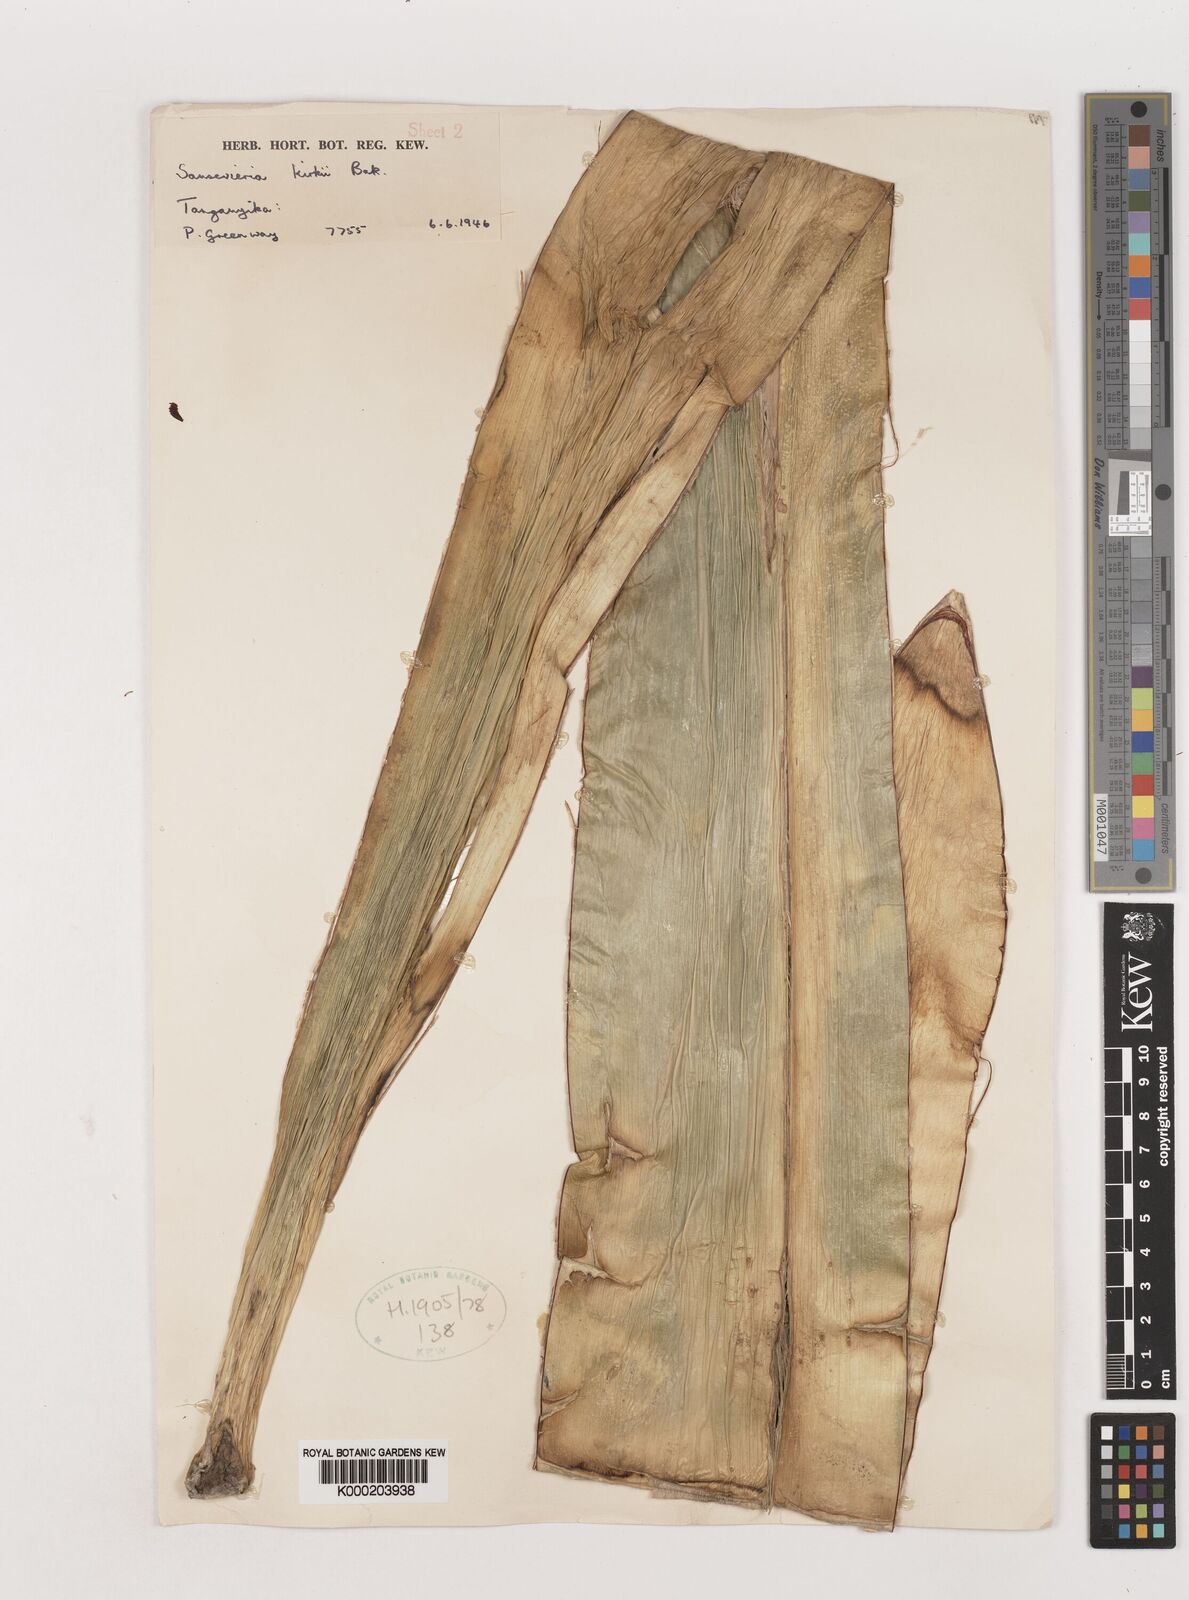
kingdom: Plantae
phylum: Tracheophyta
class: Liliopsida
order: Asparagales
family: Asparagaceae
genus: Dracaena
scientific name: Dracaena pethera
